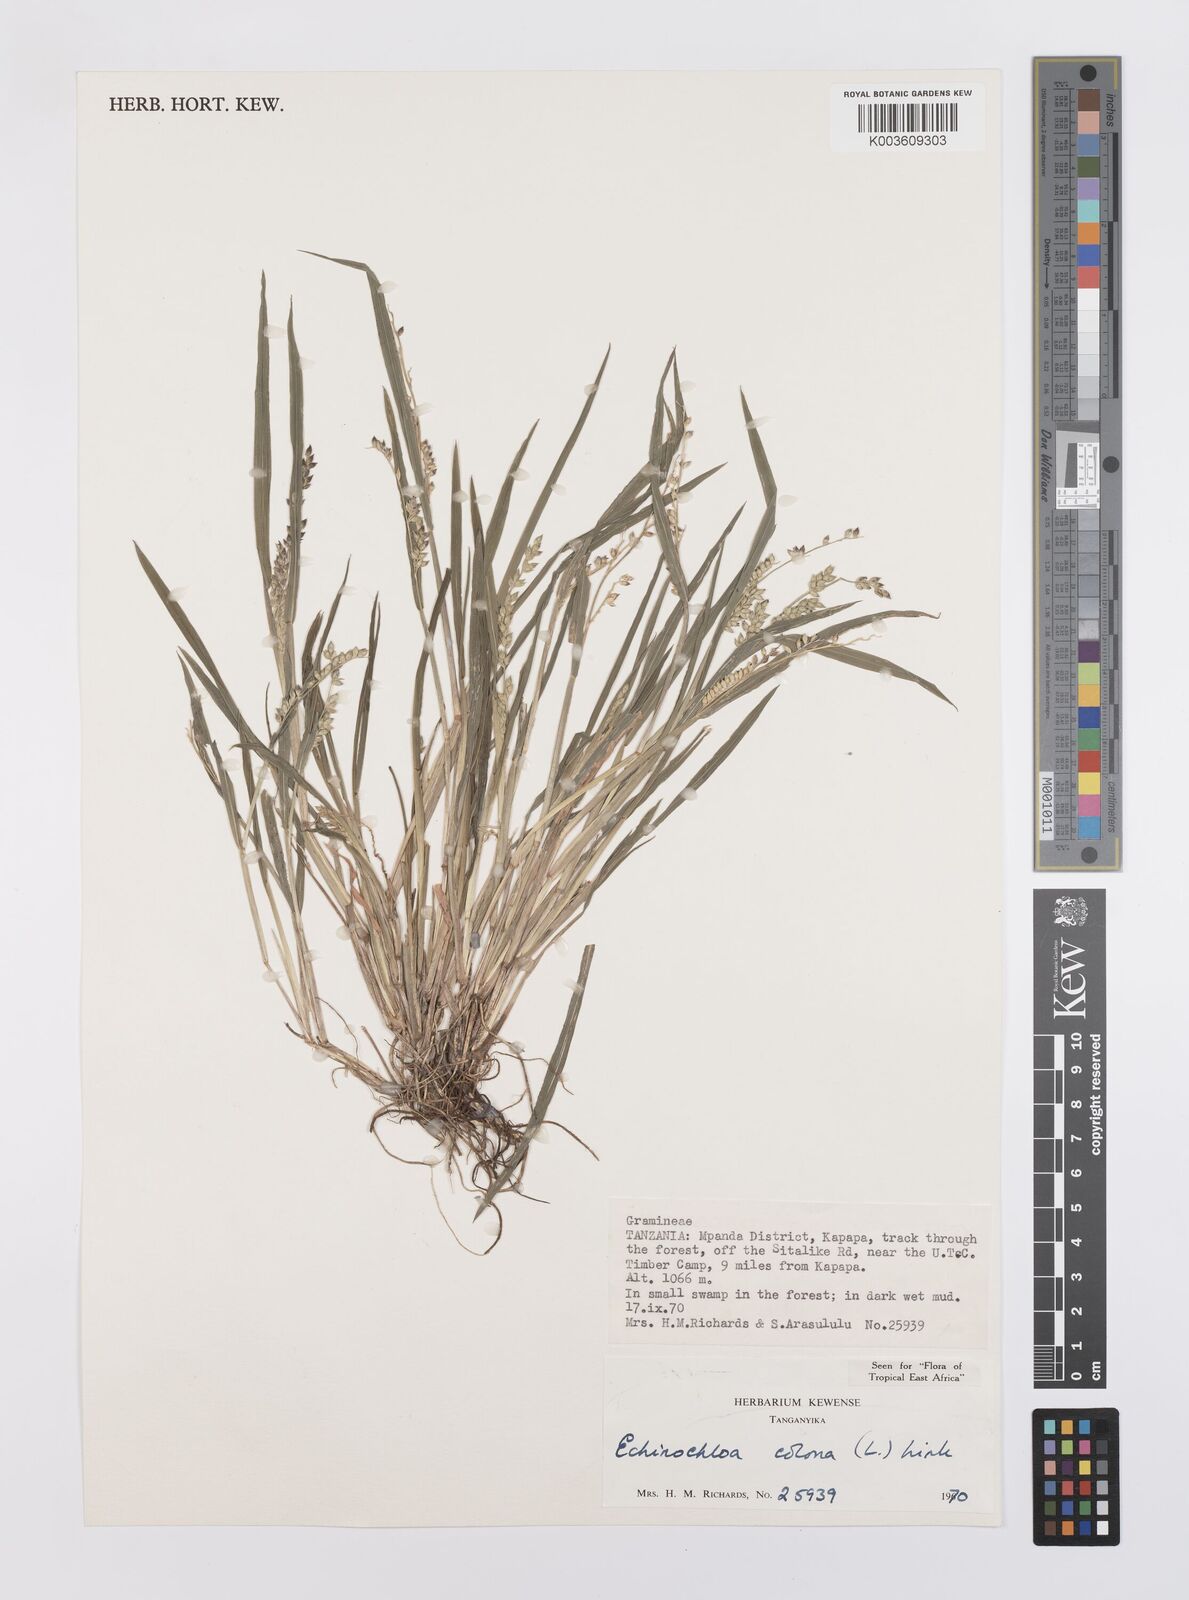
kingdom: Plantae
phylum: Tracheophyta
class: Liliopsida
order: Poales
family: Poaceae
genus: Echinochloa
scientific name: Echinochloa colonum
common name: Jungle rice
